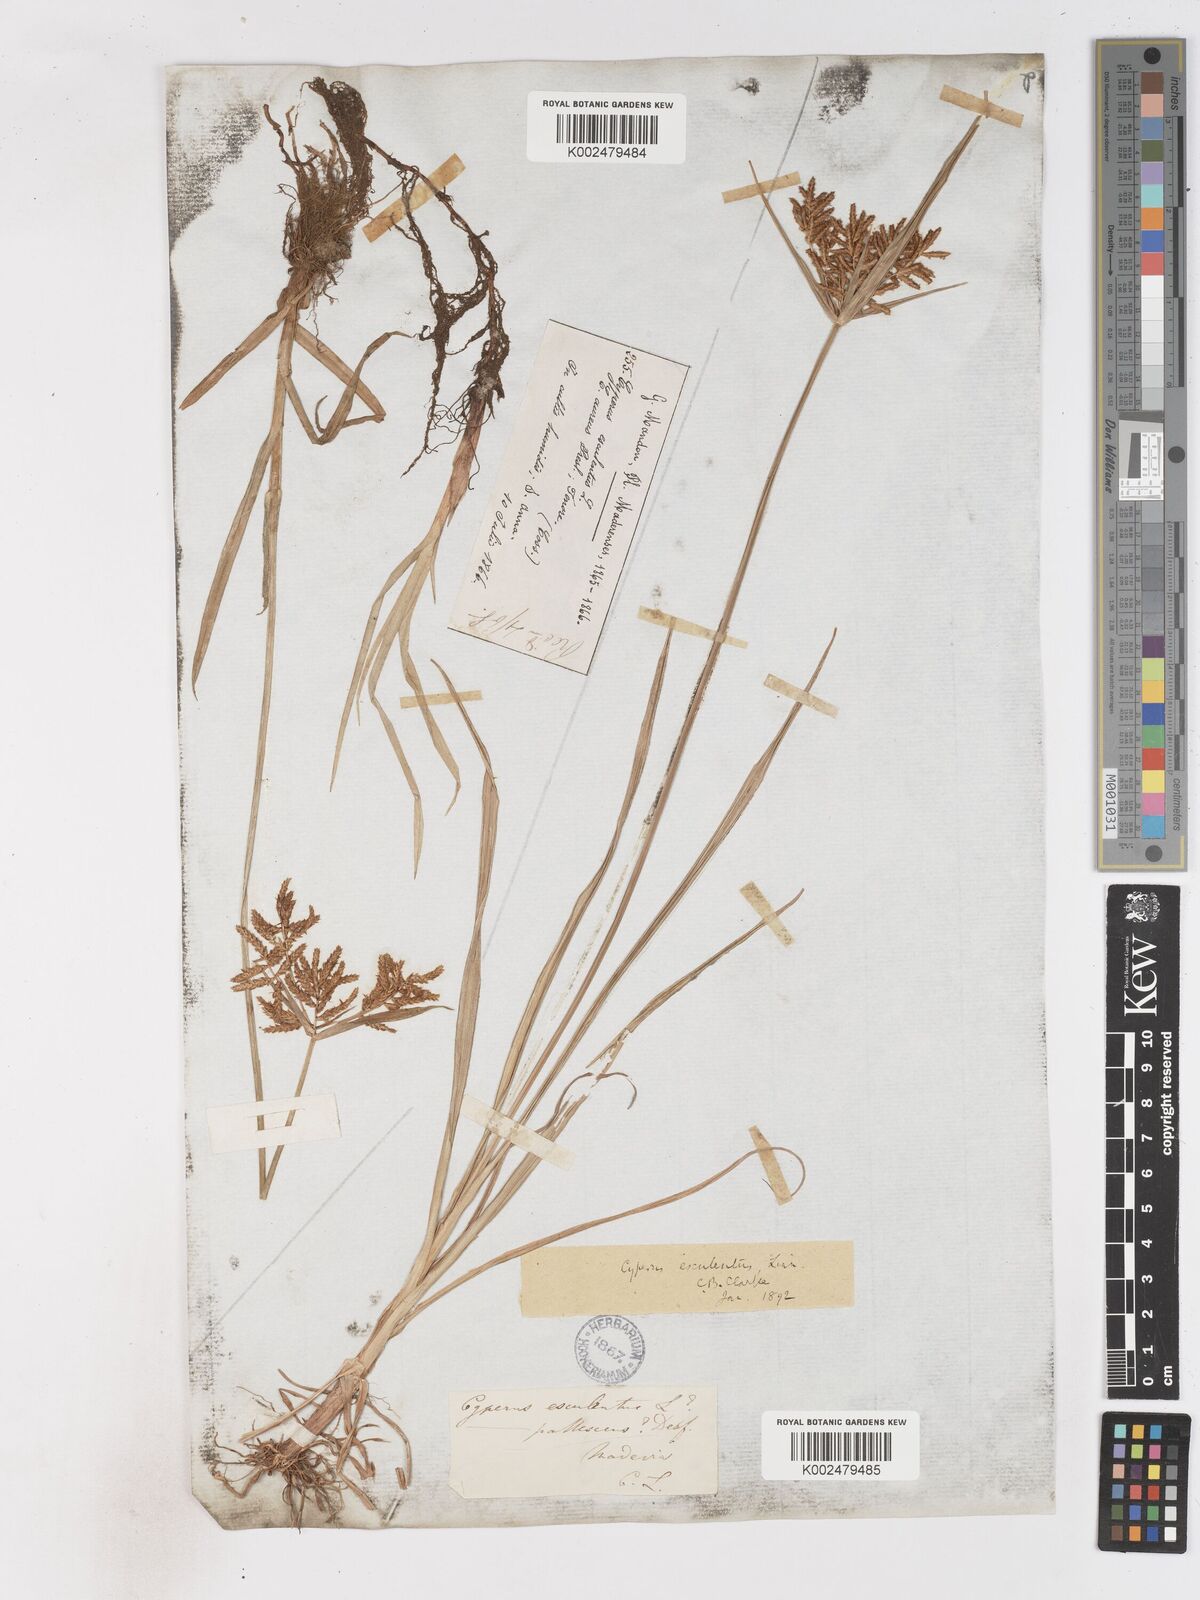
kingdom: Plantae
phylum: Tracheophyta
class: Liliopsida
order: Poales
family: Cyperaceae
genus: Cyperus
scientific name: Cyperus esculentus
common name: Yellow nutsedge
